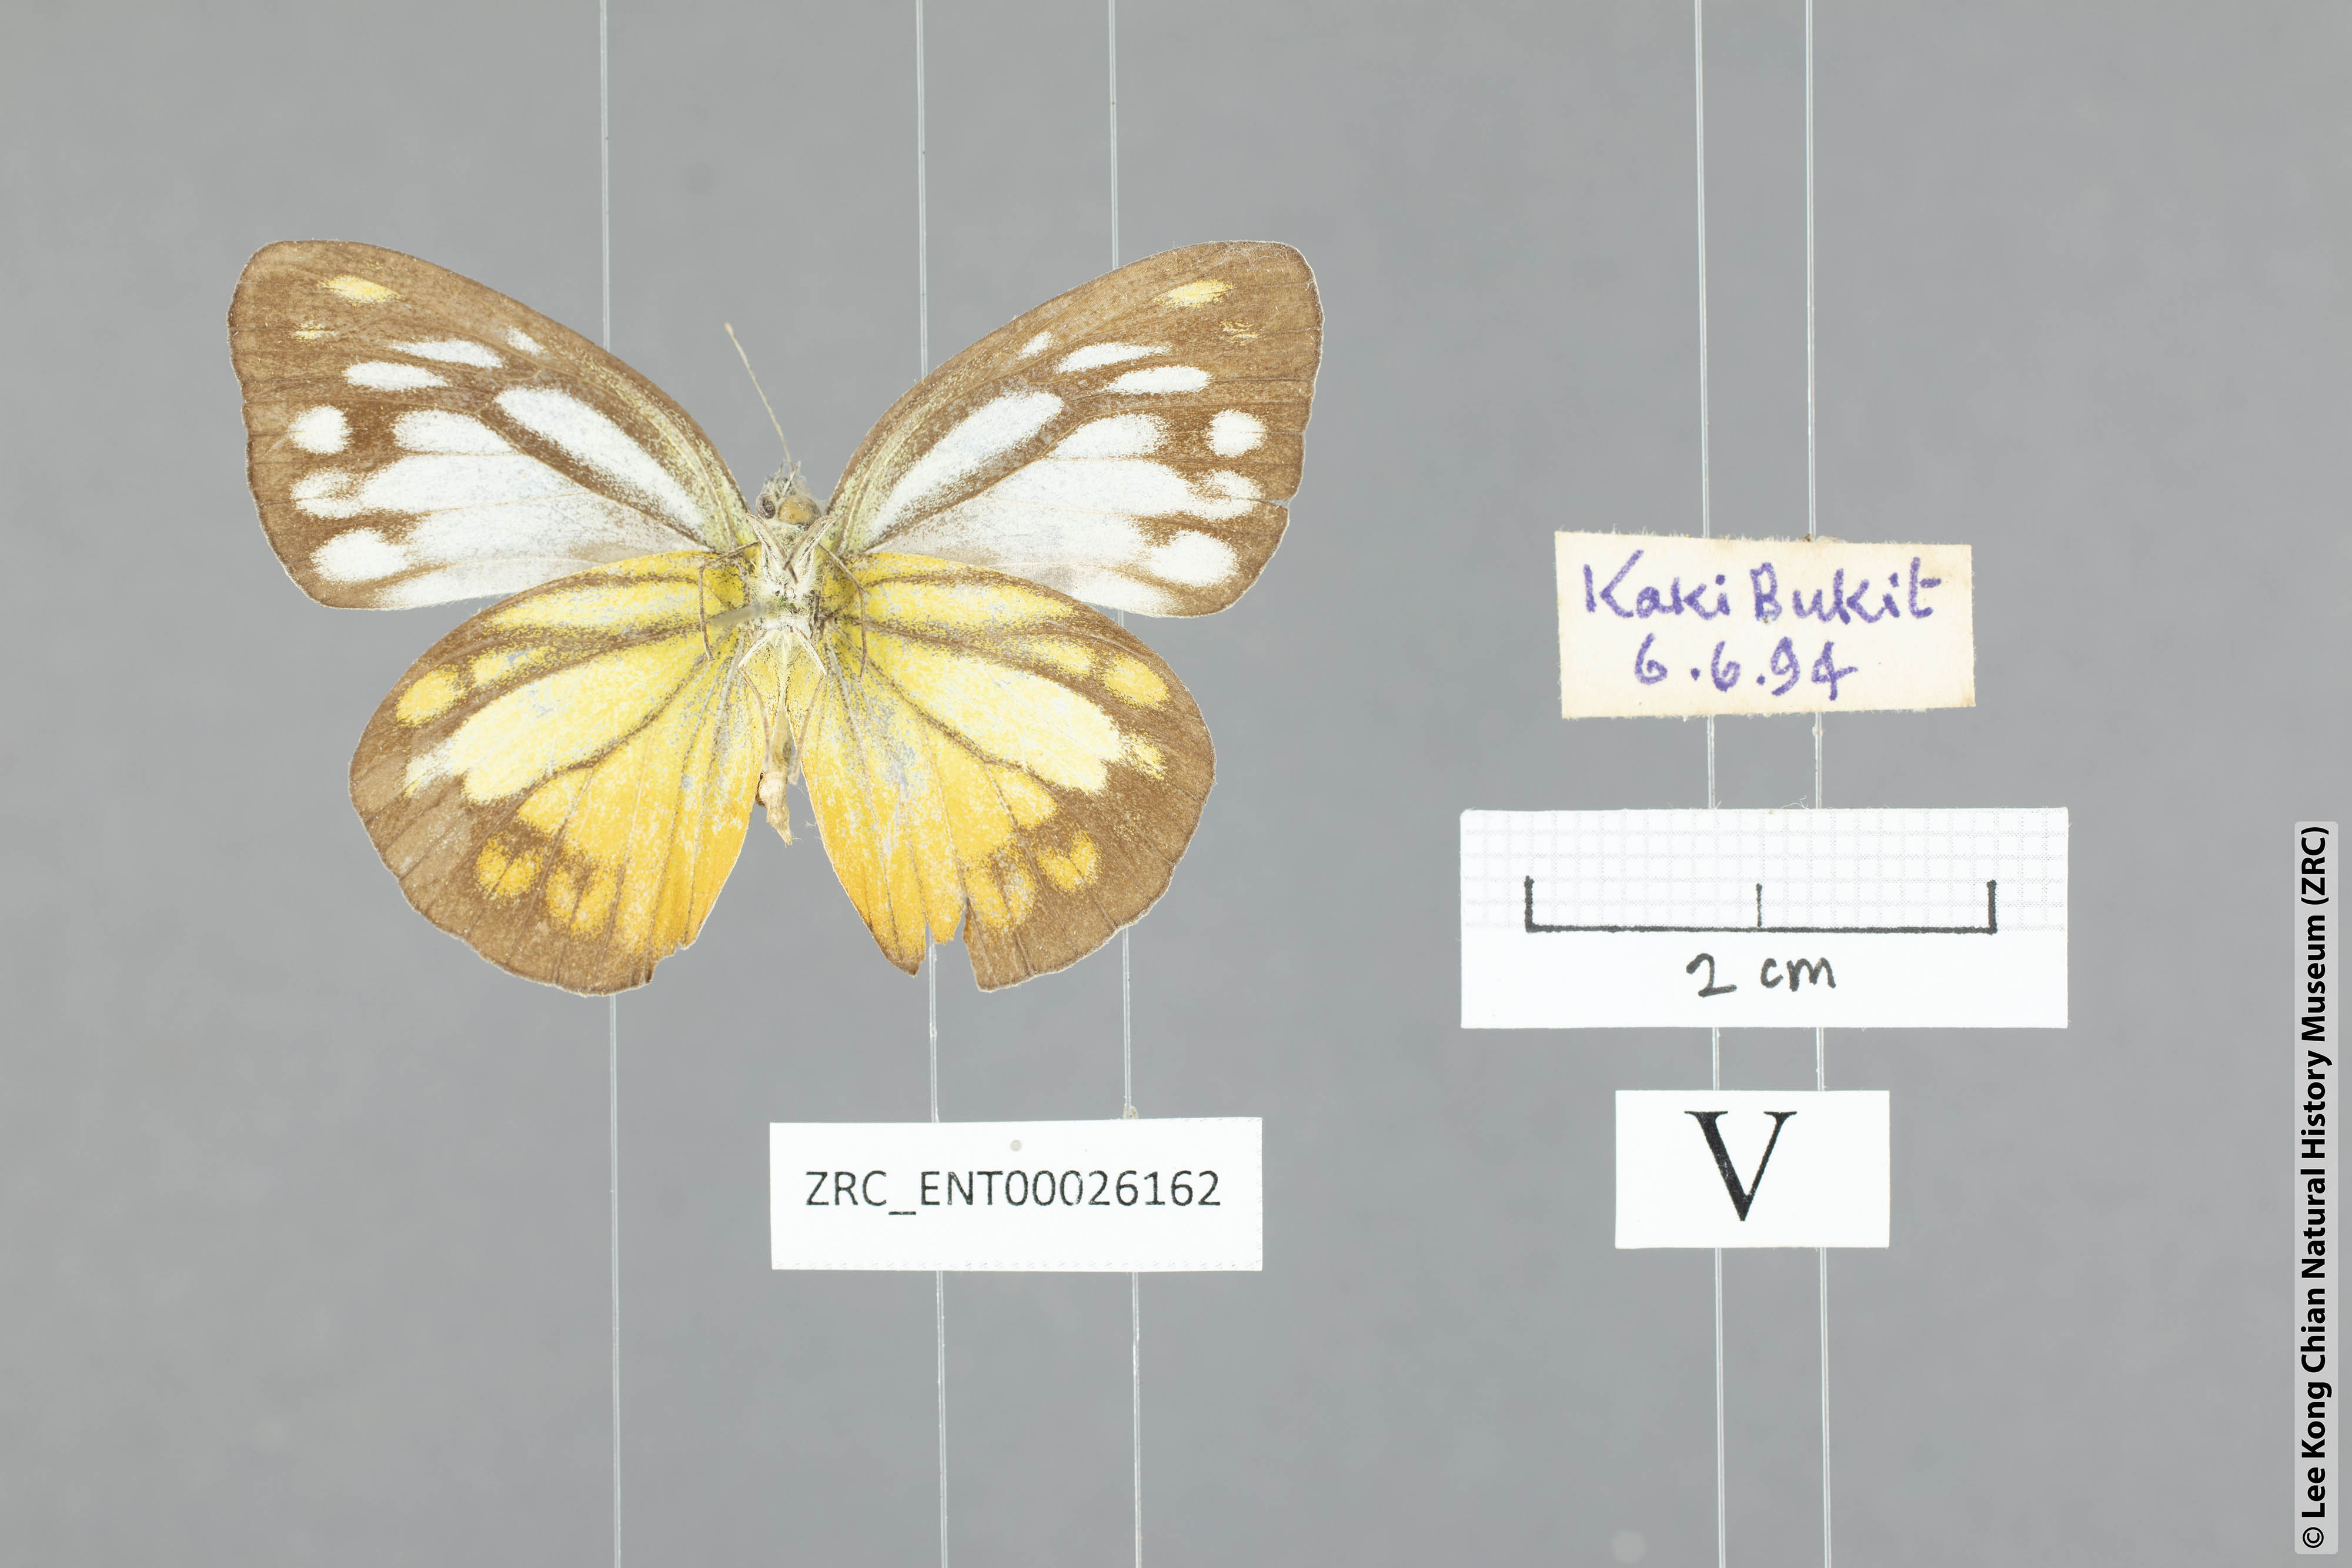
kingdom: Animalia
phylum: Arthropoda
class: Insecta
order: Lepidoptera
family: Pieridae
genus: Cepora
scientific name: Cepora nerissa
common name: Common gull
